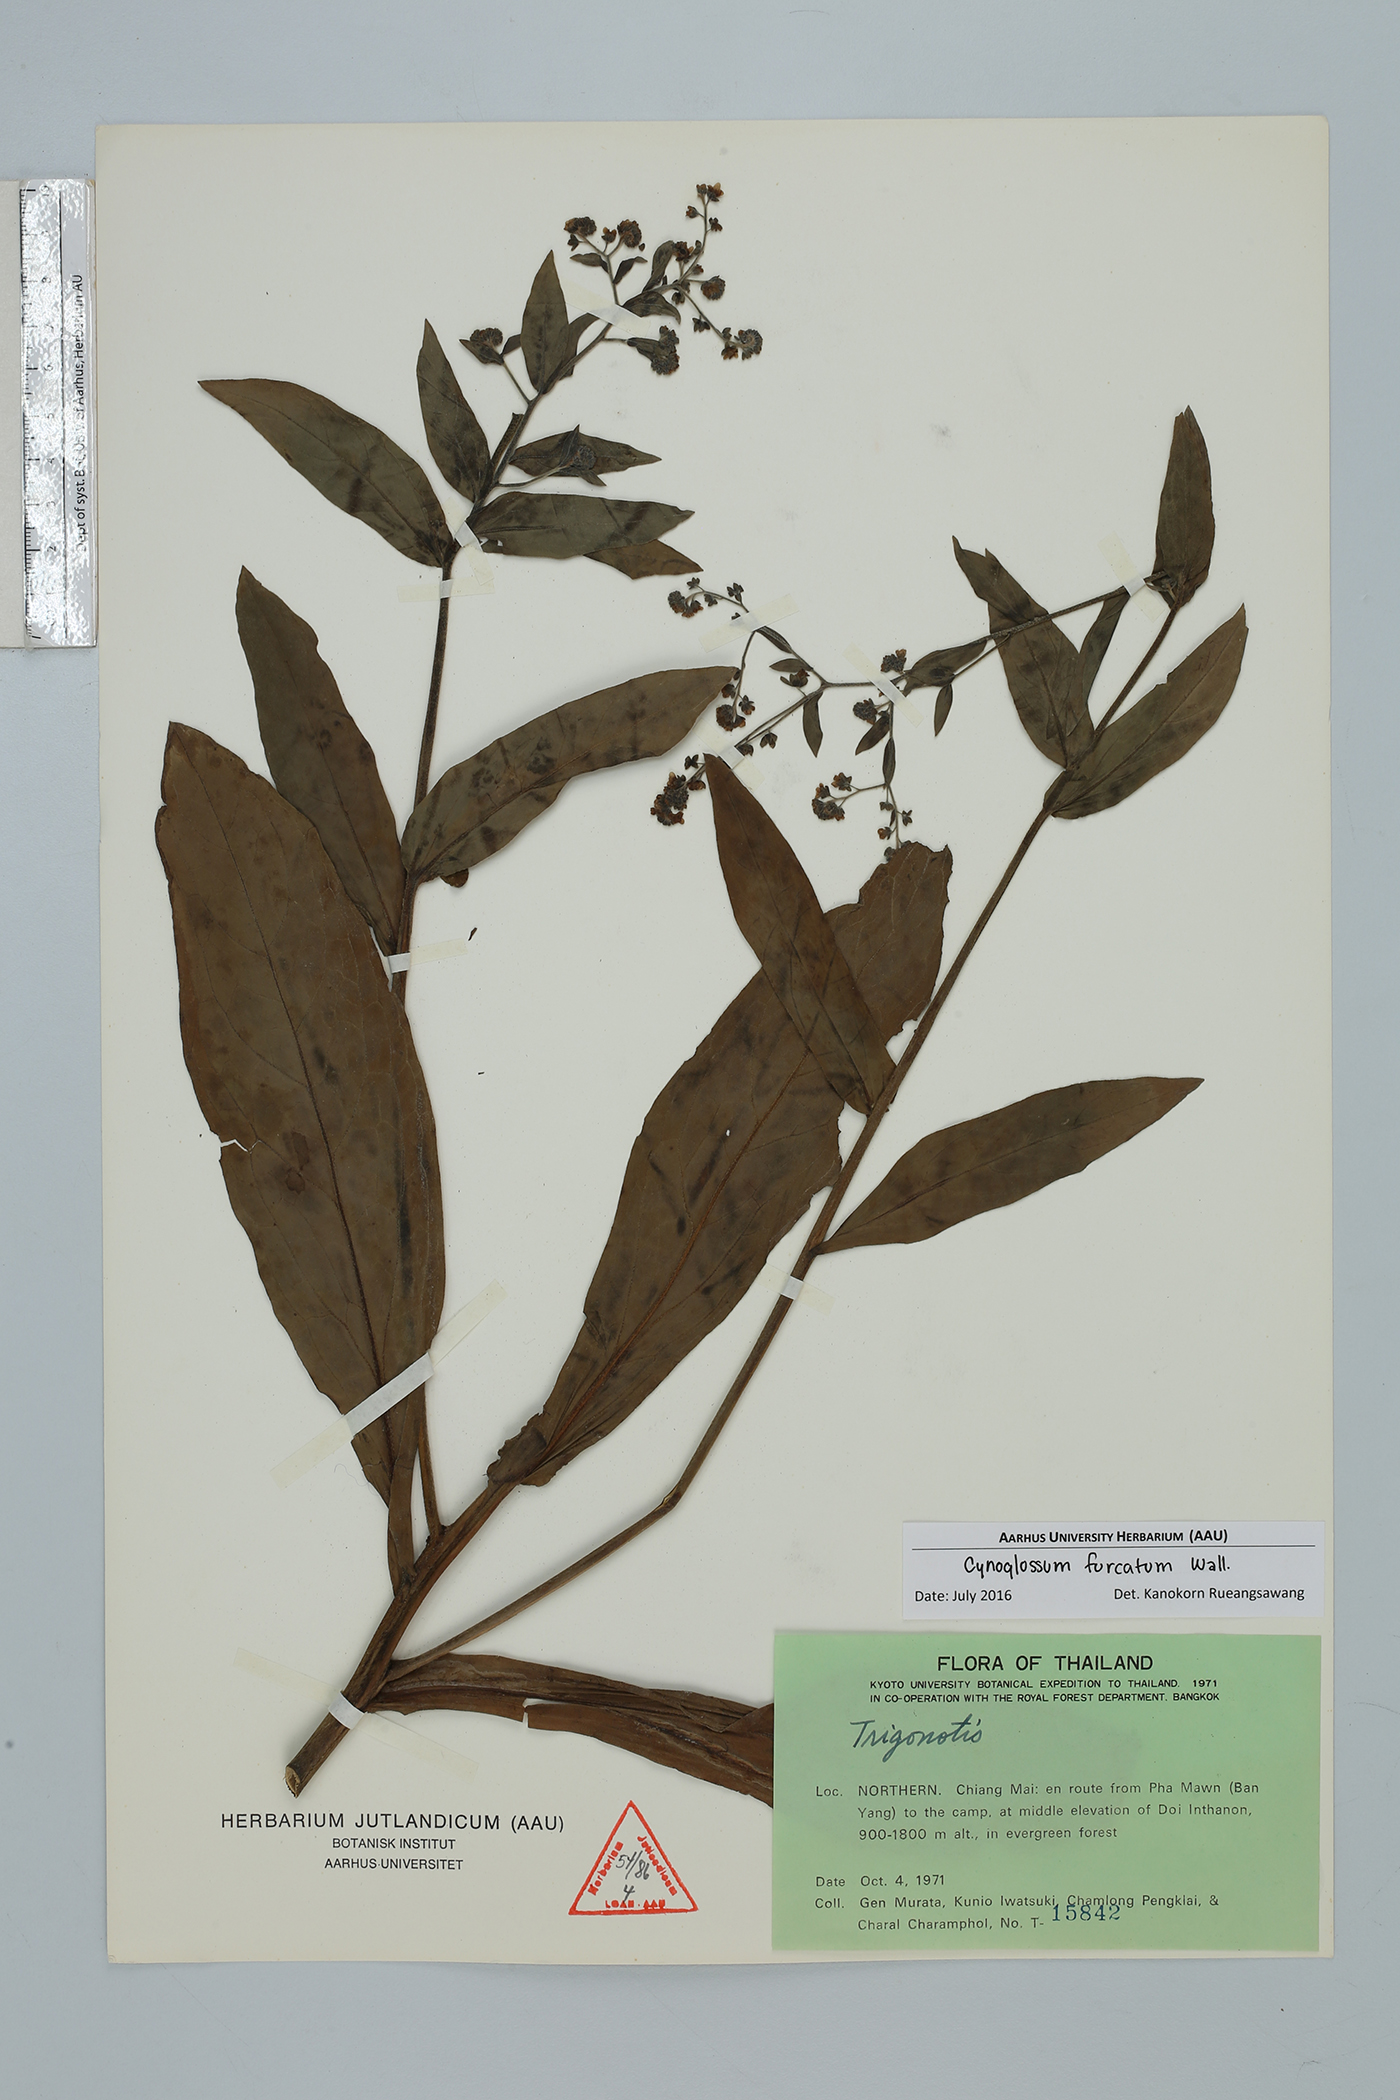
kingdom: Plantae
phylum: Tracheophyta
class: Magnoliopsida
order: Boraginales
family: Boraginaceae
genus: Rochelia
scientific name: Rochelia zeylanica
